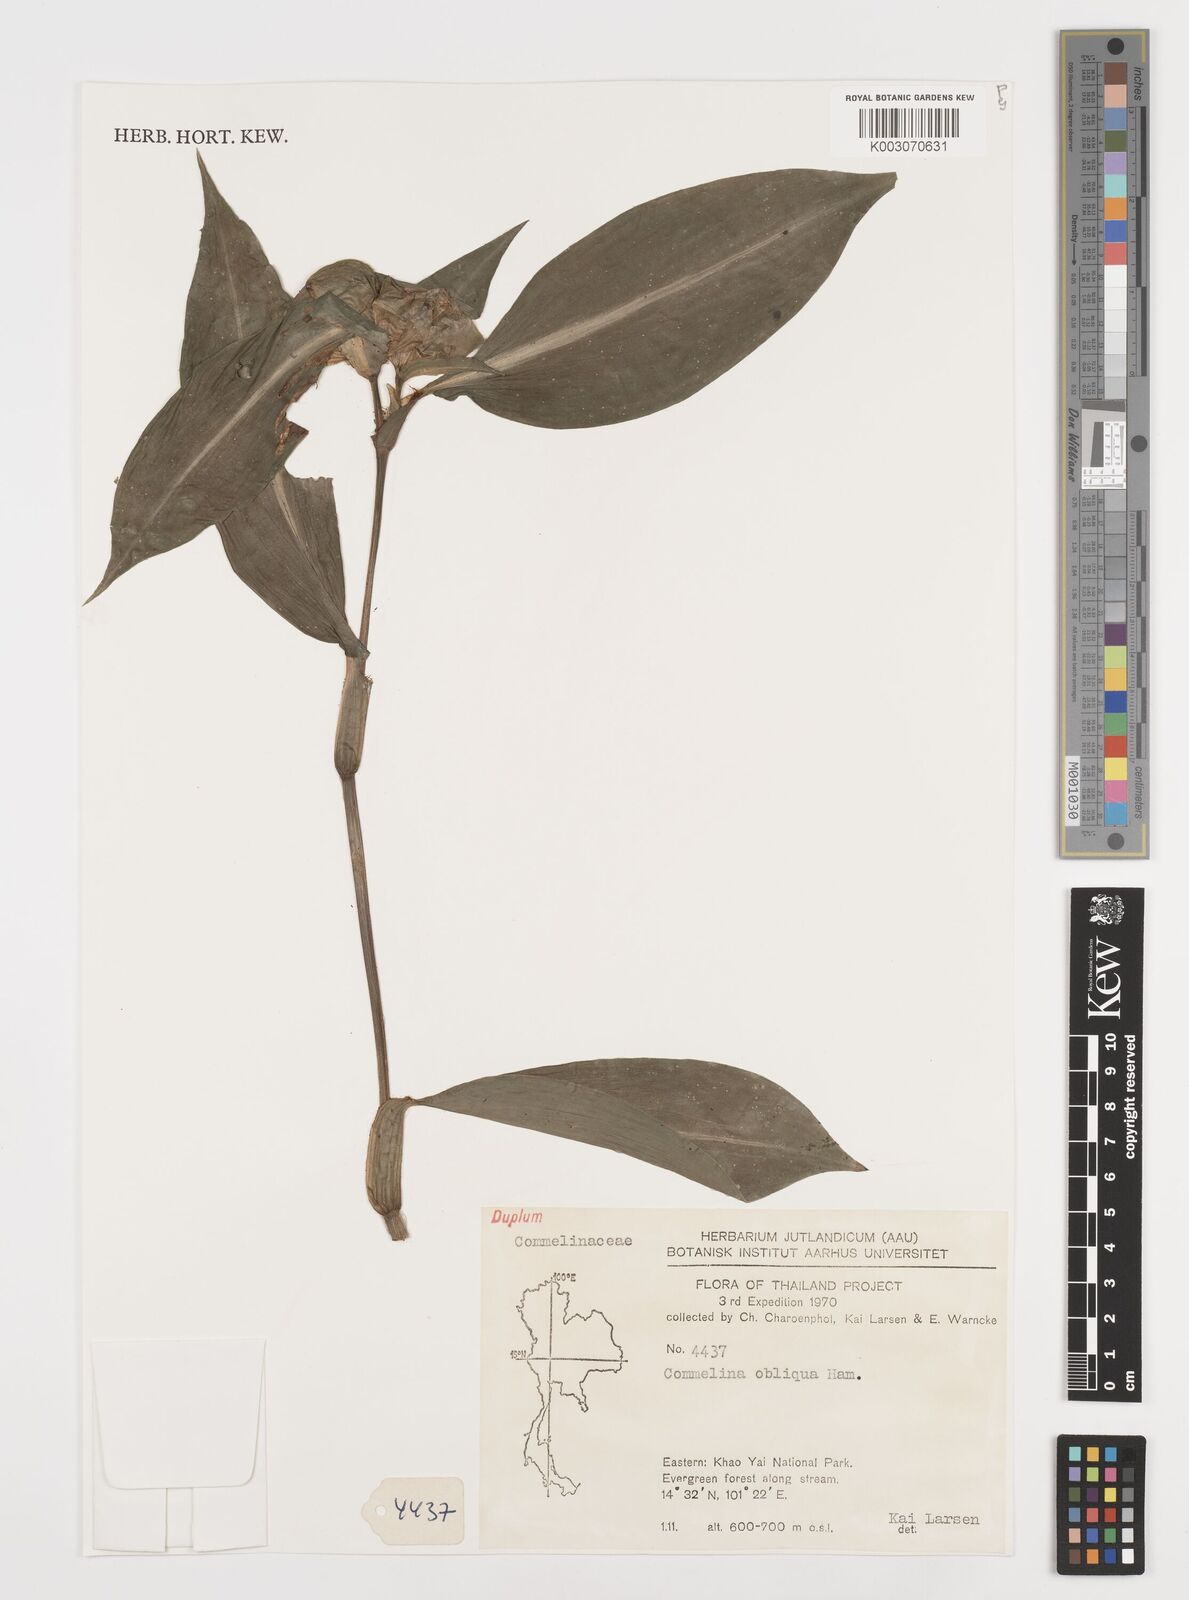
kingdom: Plantae
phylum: Tracheophyta
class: Liliopsida
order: Commelinales
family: Commelinaceae
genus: Commelina
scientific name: Commelina paludosa
